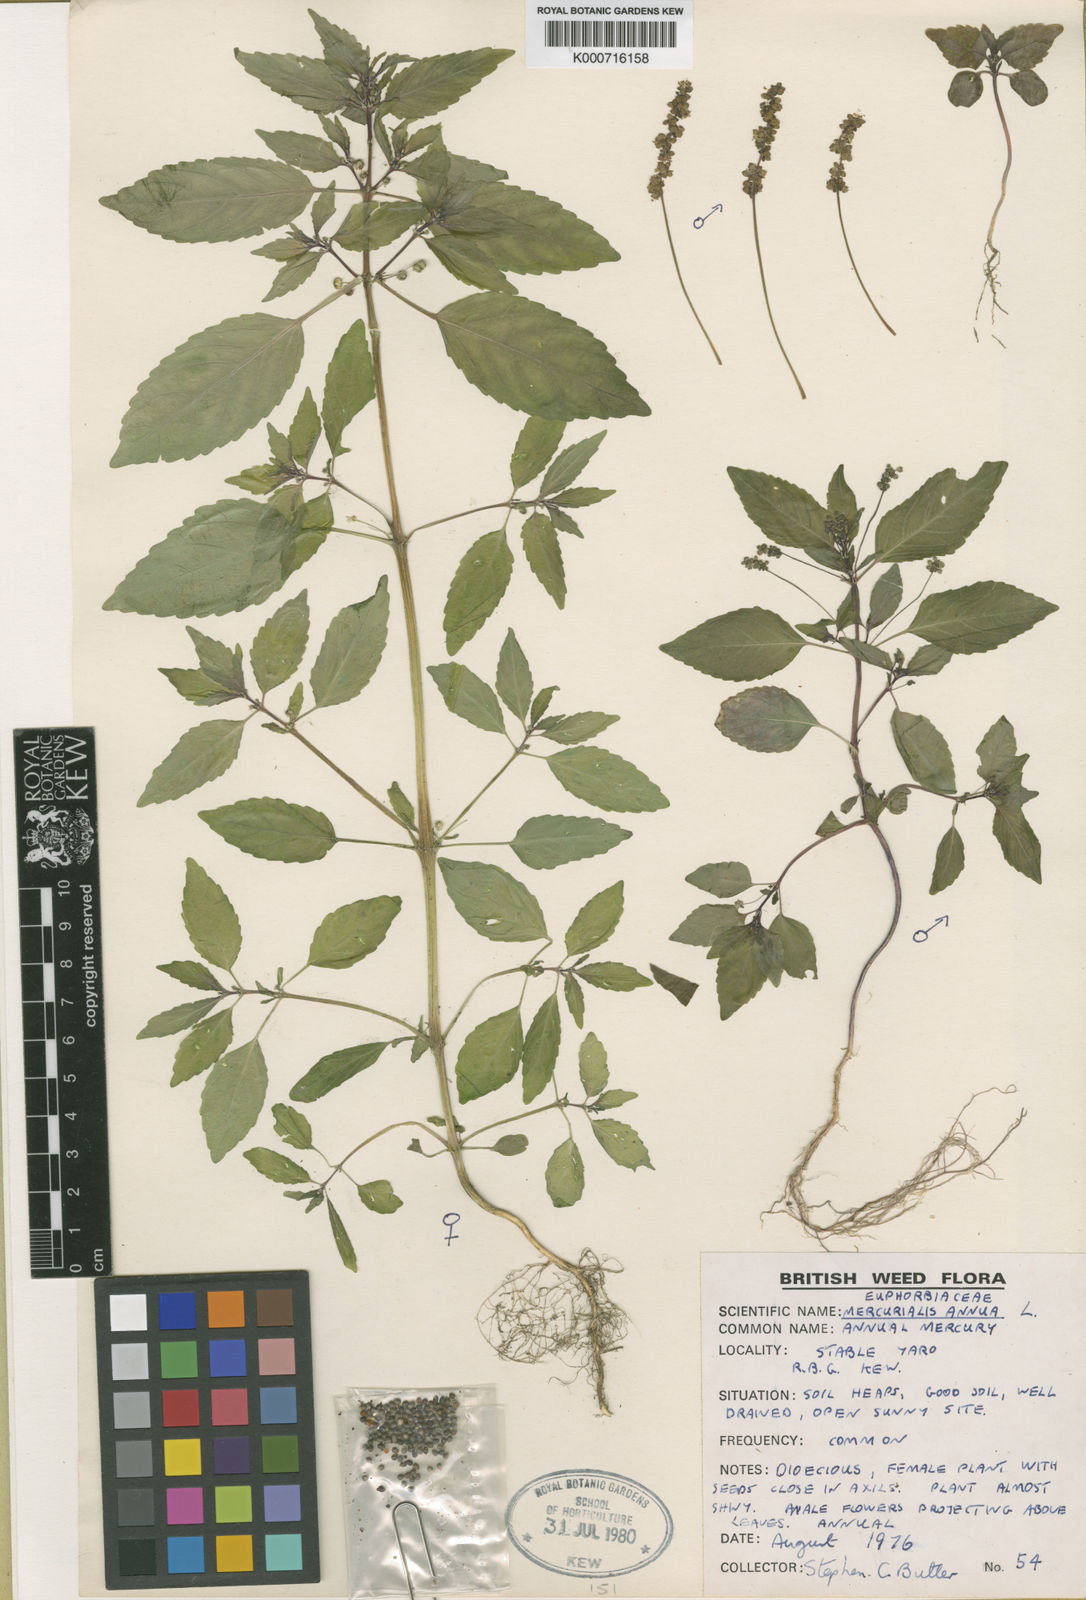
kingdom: Plantae
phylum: Tracheophyta
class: Magnoliopsida
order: Malpighiales
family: Euphorbiaceae
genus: Mercurialis
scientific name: Mercurialis annua
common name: Annual mercury
